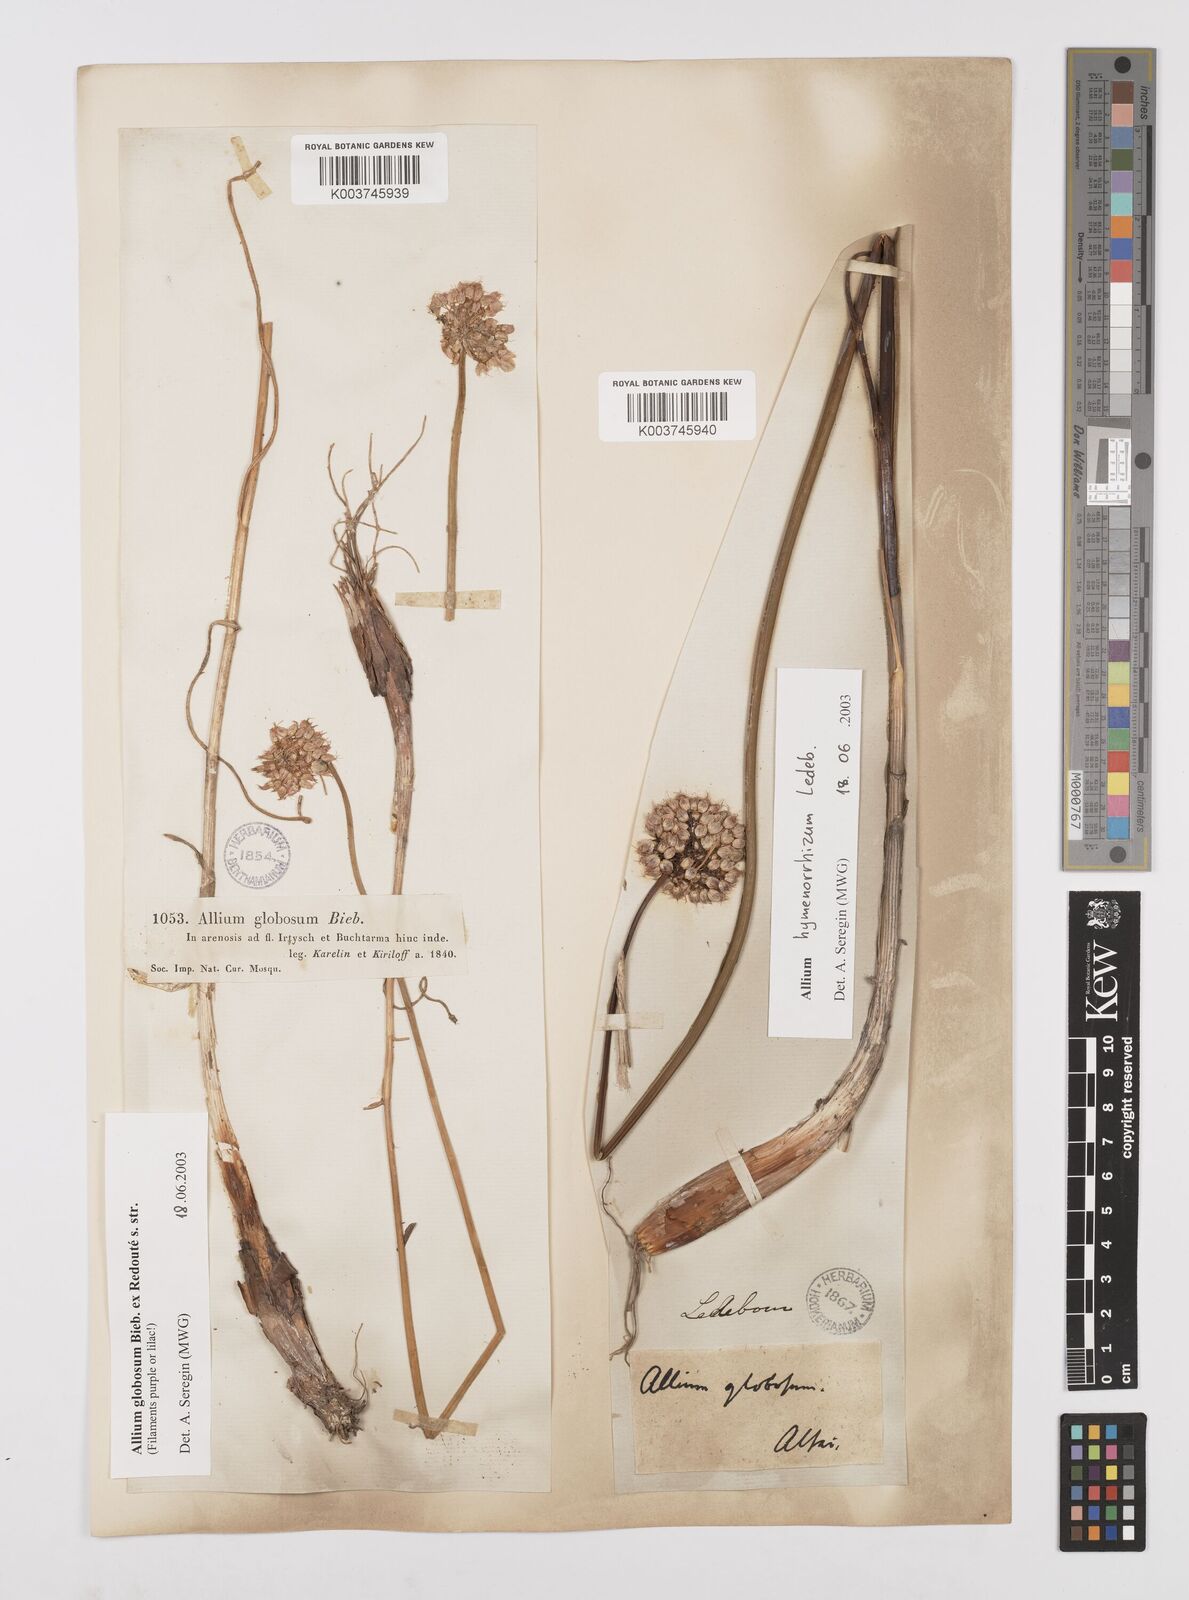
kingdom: Plantae
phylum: Tracheophyta
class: Liliopsida
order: Asparagales
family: Amaryllidaceae
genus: Allium
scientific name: Allium saxatile
